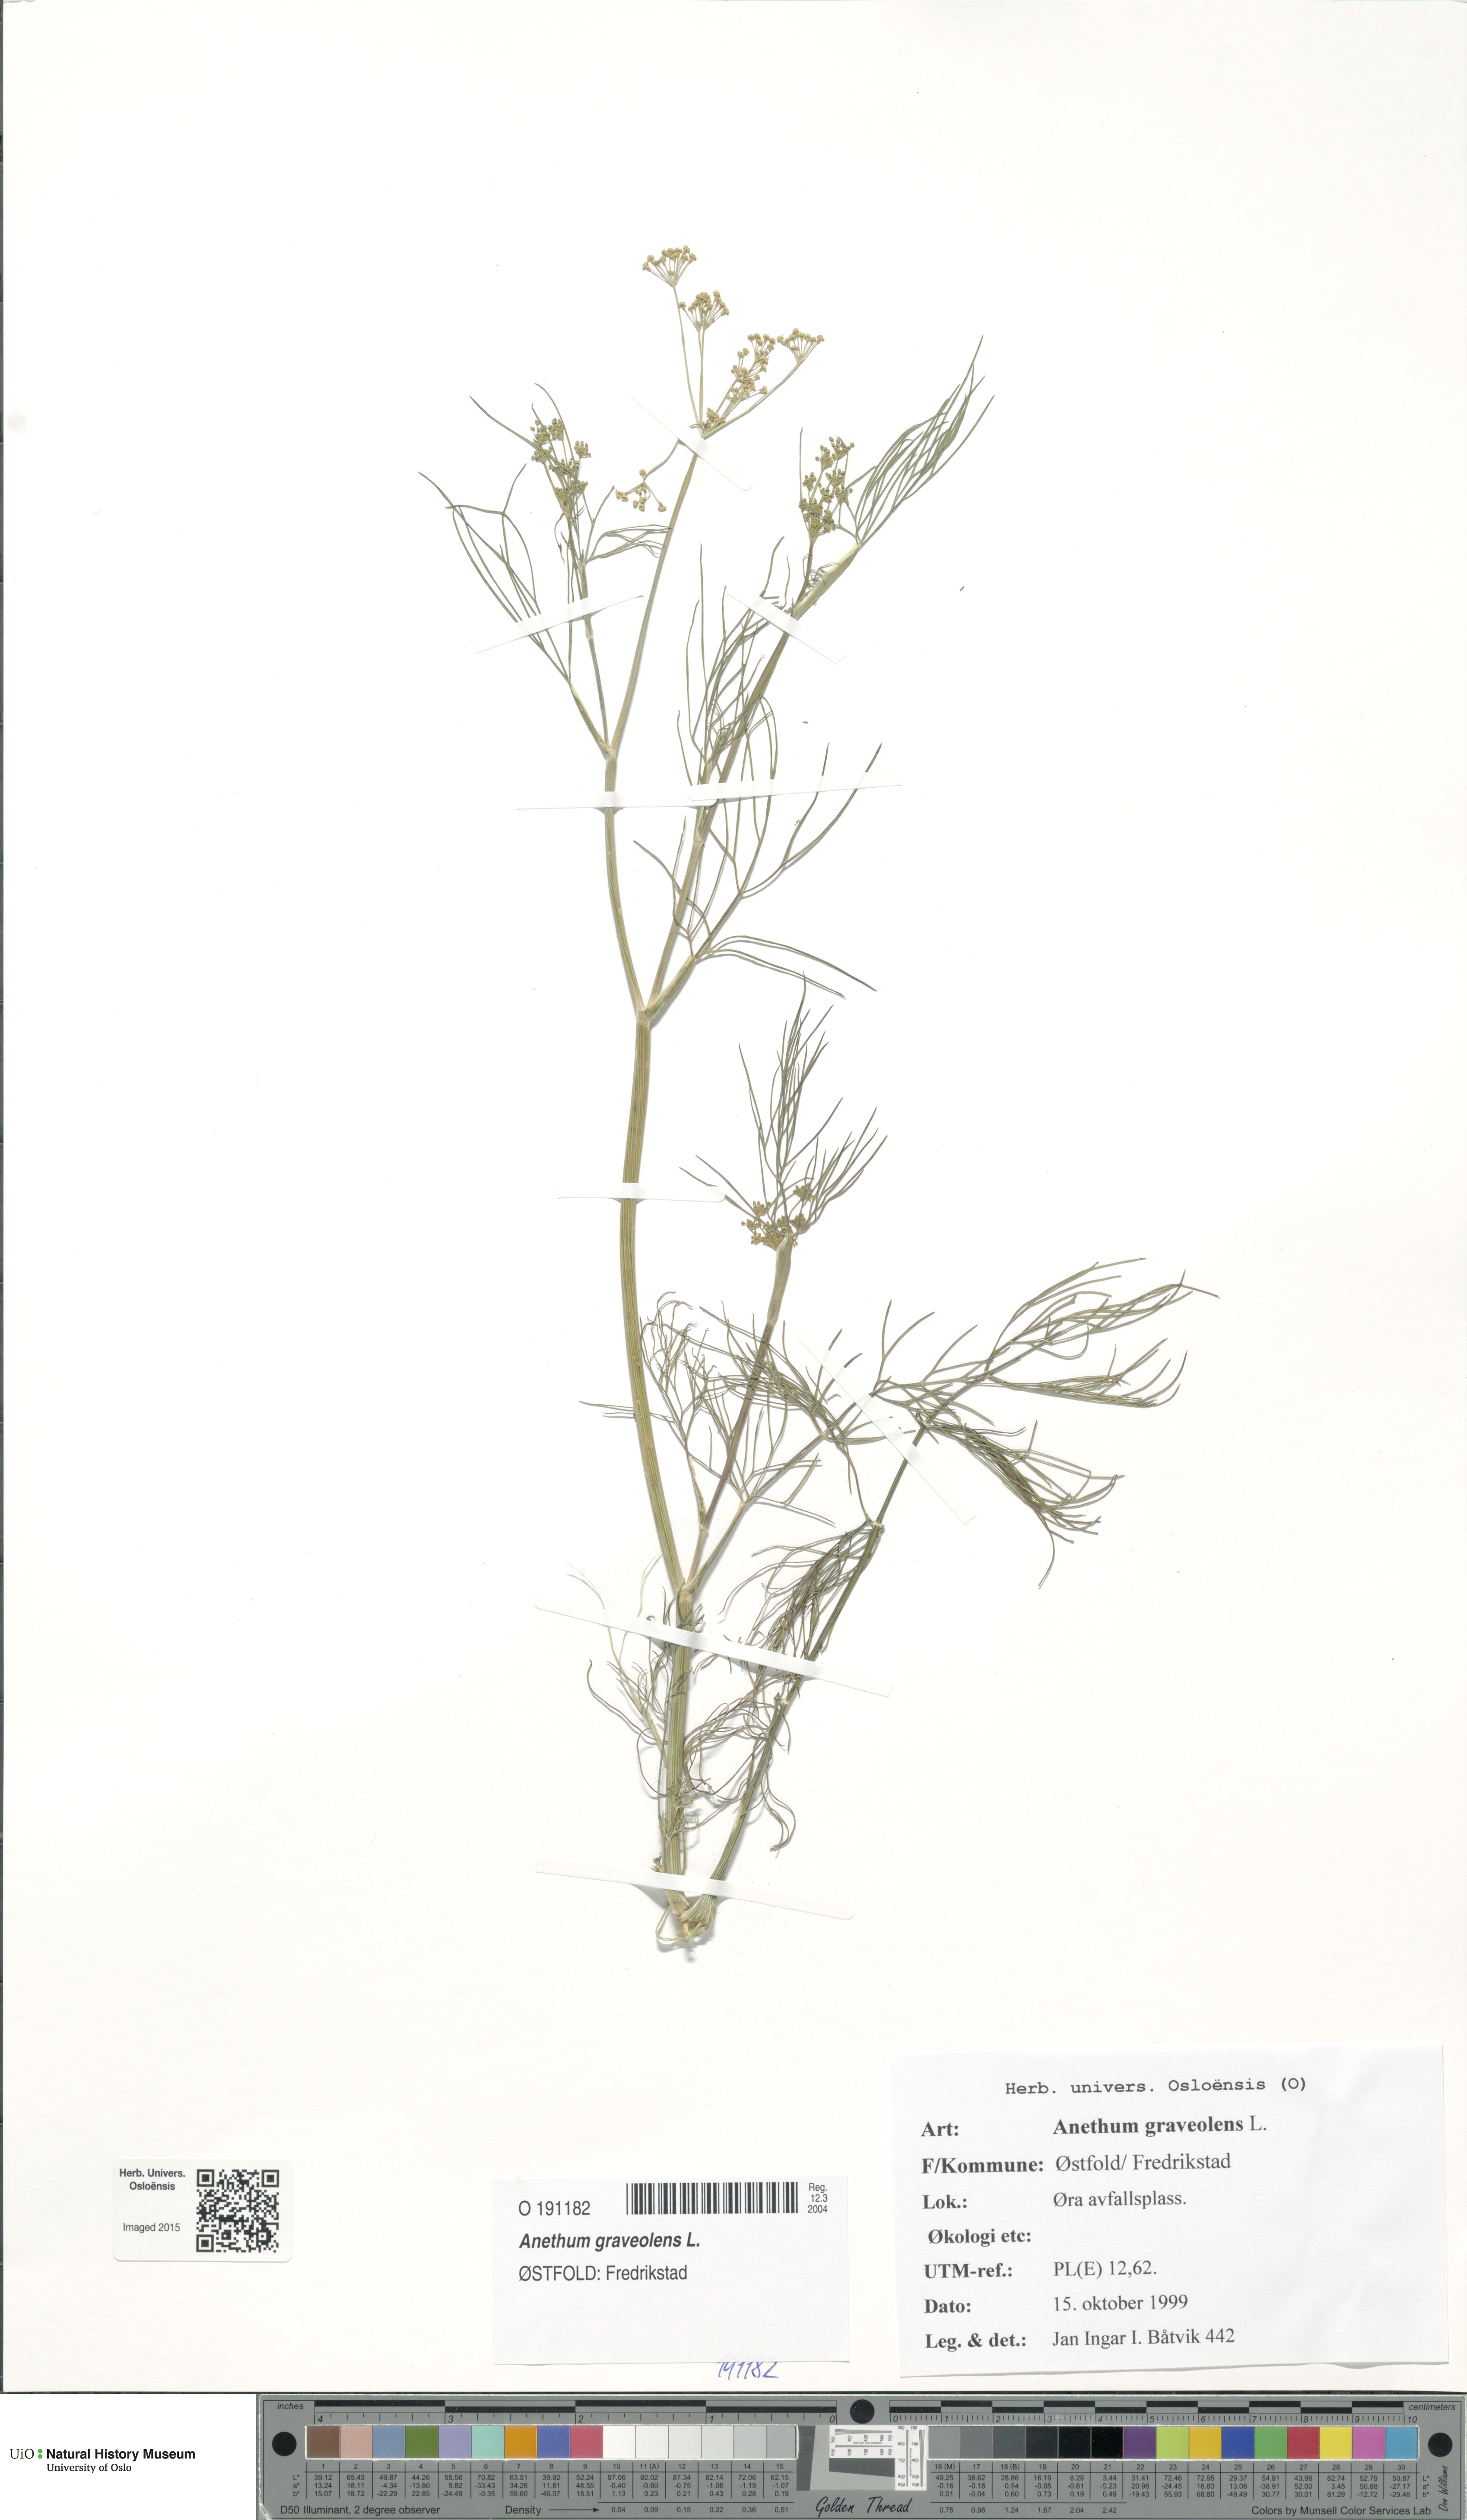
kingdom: Plantae
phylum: Tracheophyta
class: Magnoliopsida
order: Apiales
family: Apiaceae
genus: Anethum
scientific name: Anethum graveolens
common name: Dill
